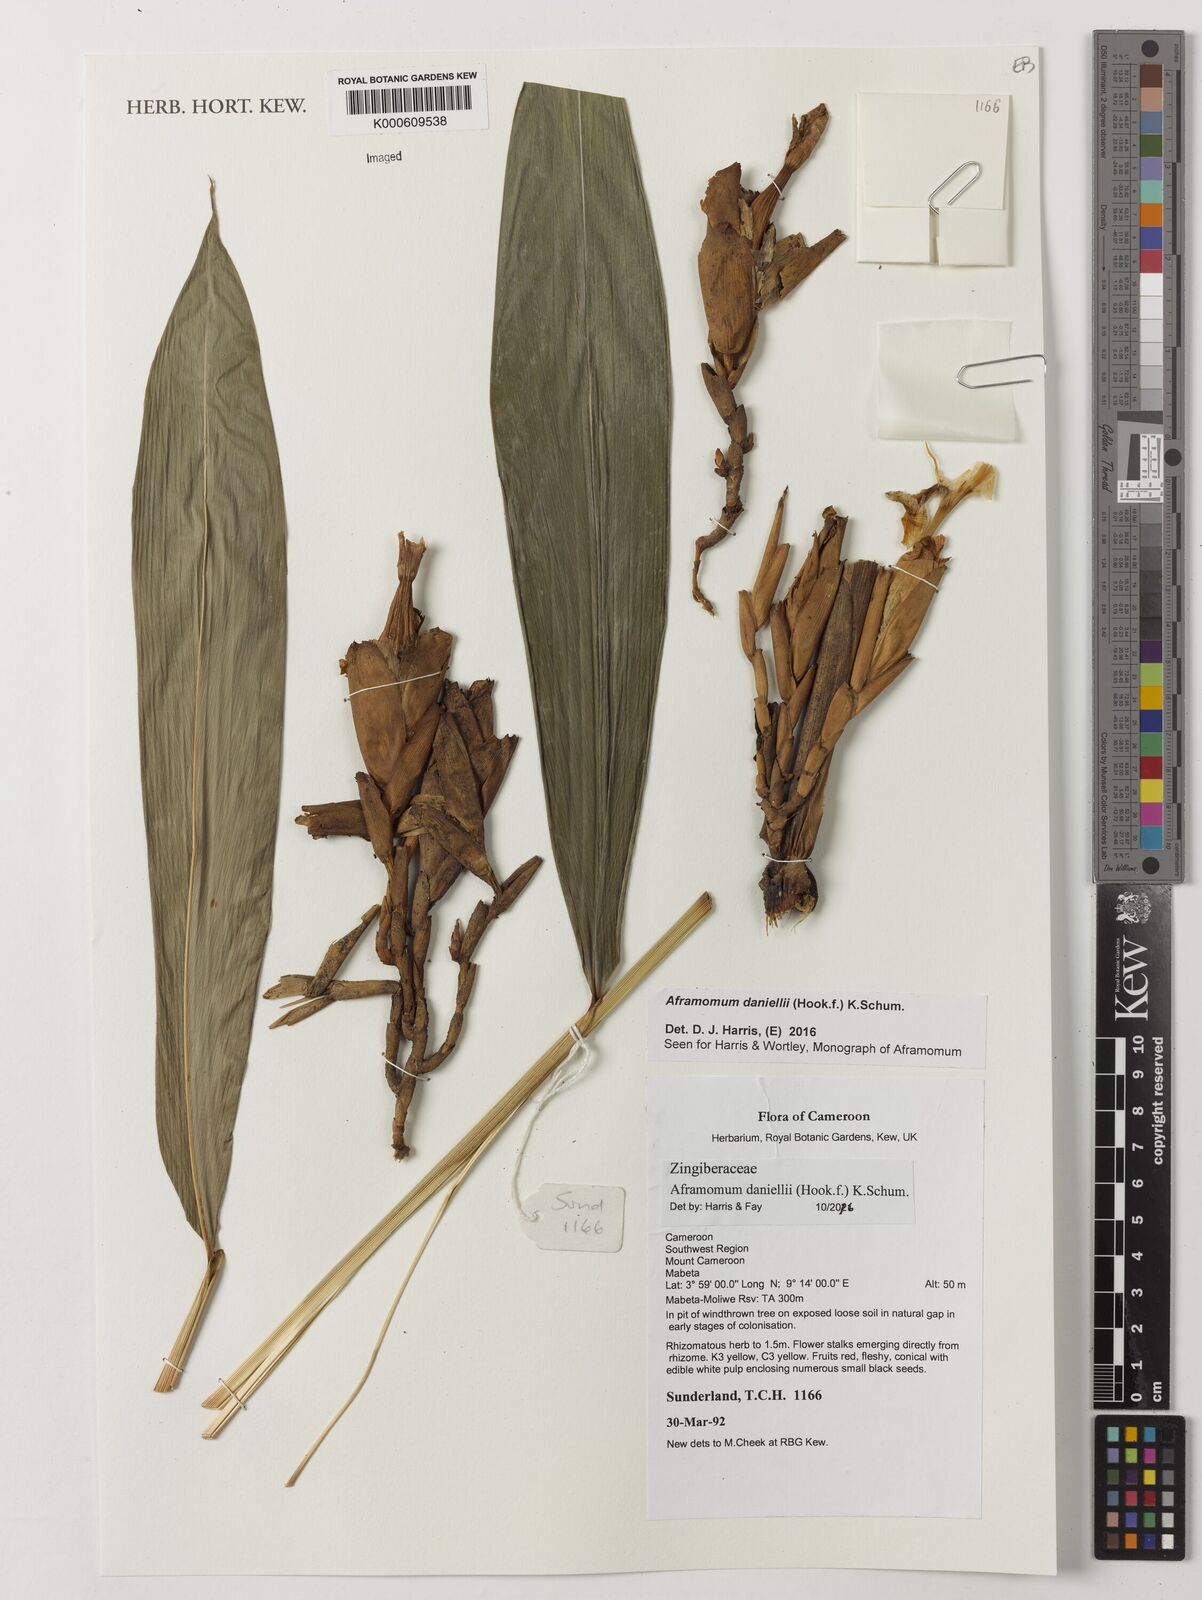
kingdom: Plantae
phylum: Tracheophyta
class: Liliopsida
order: Zingiberales
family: Zingiberaceae
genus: Aframomum
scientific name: Aframomum daniellii
